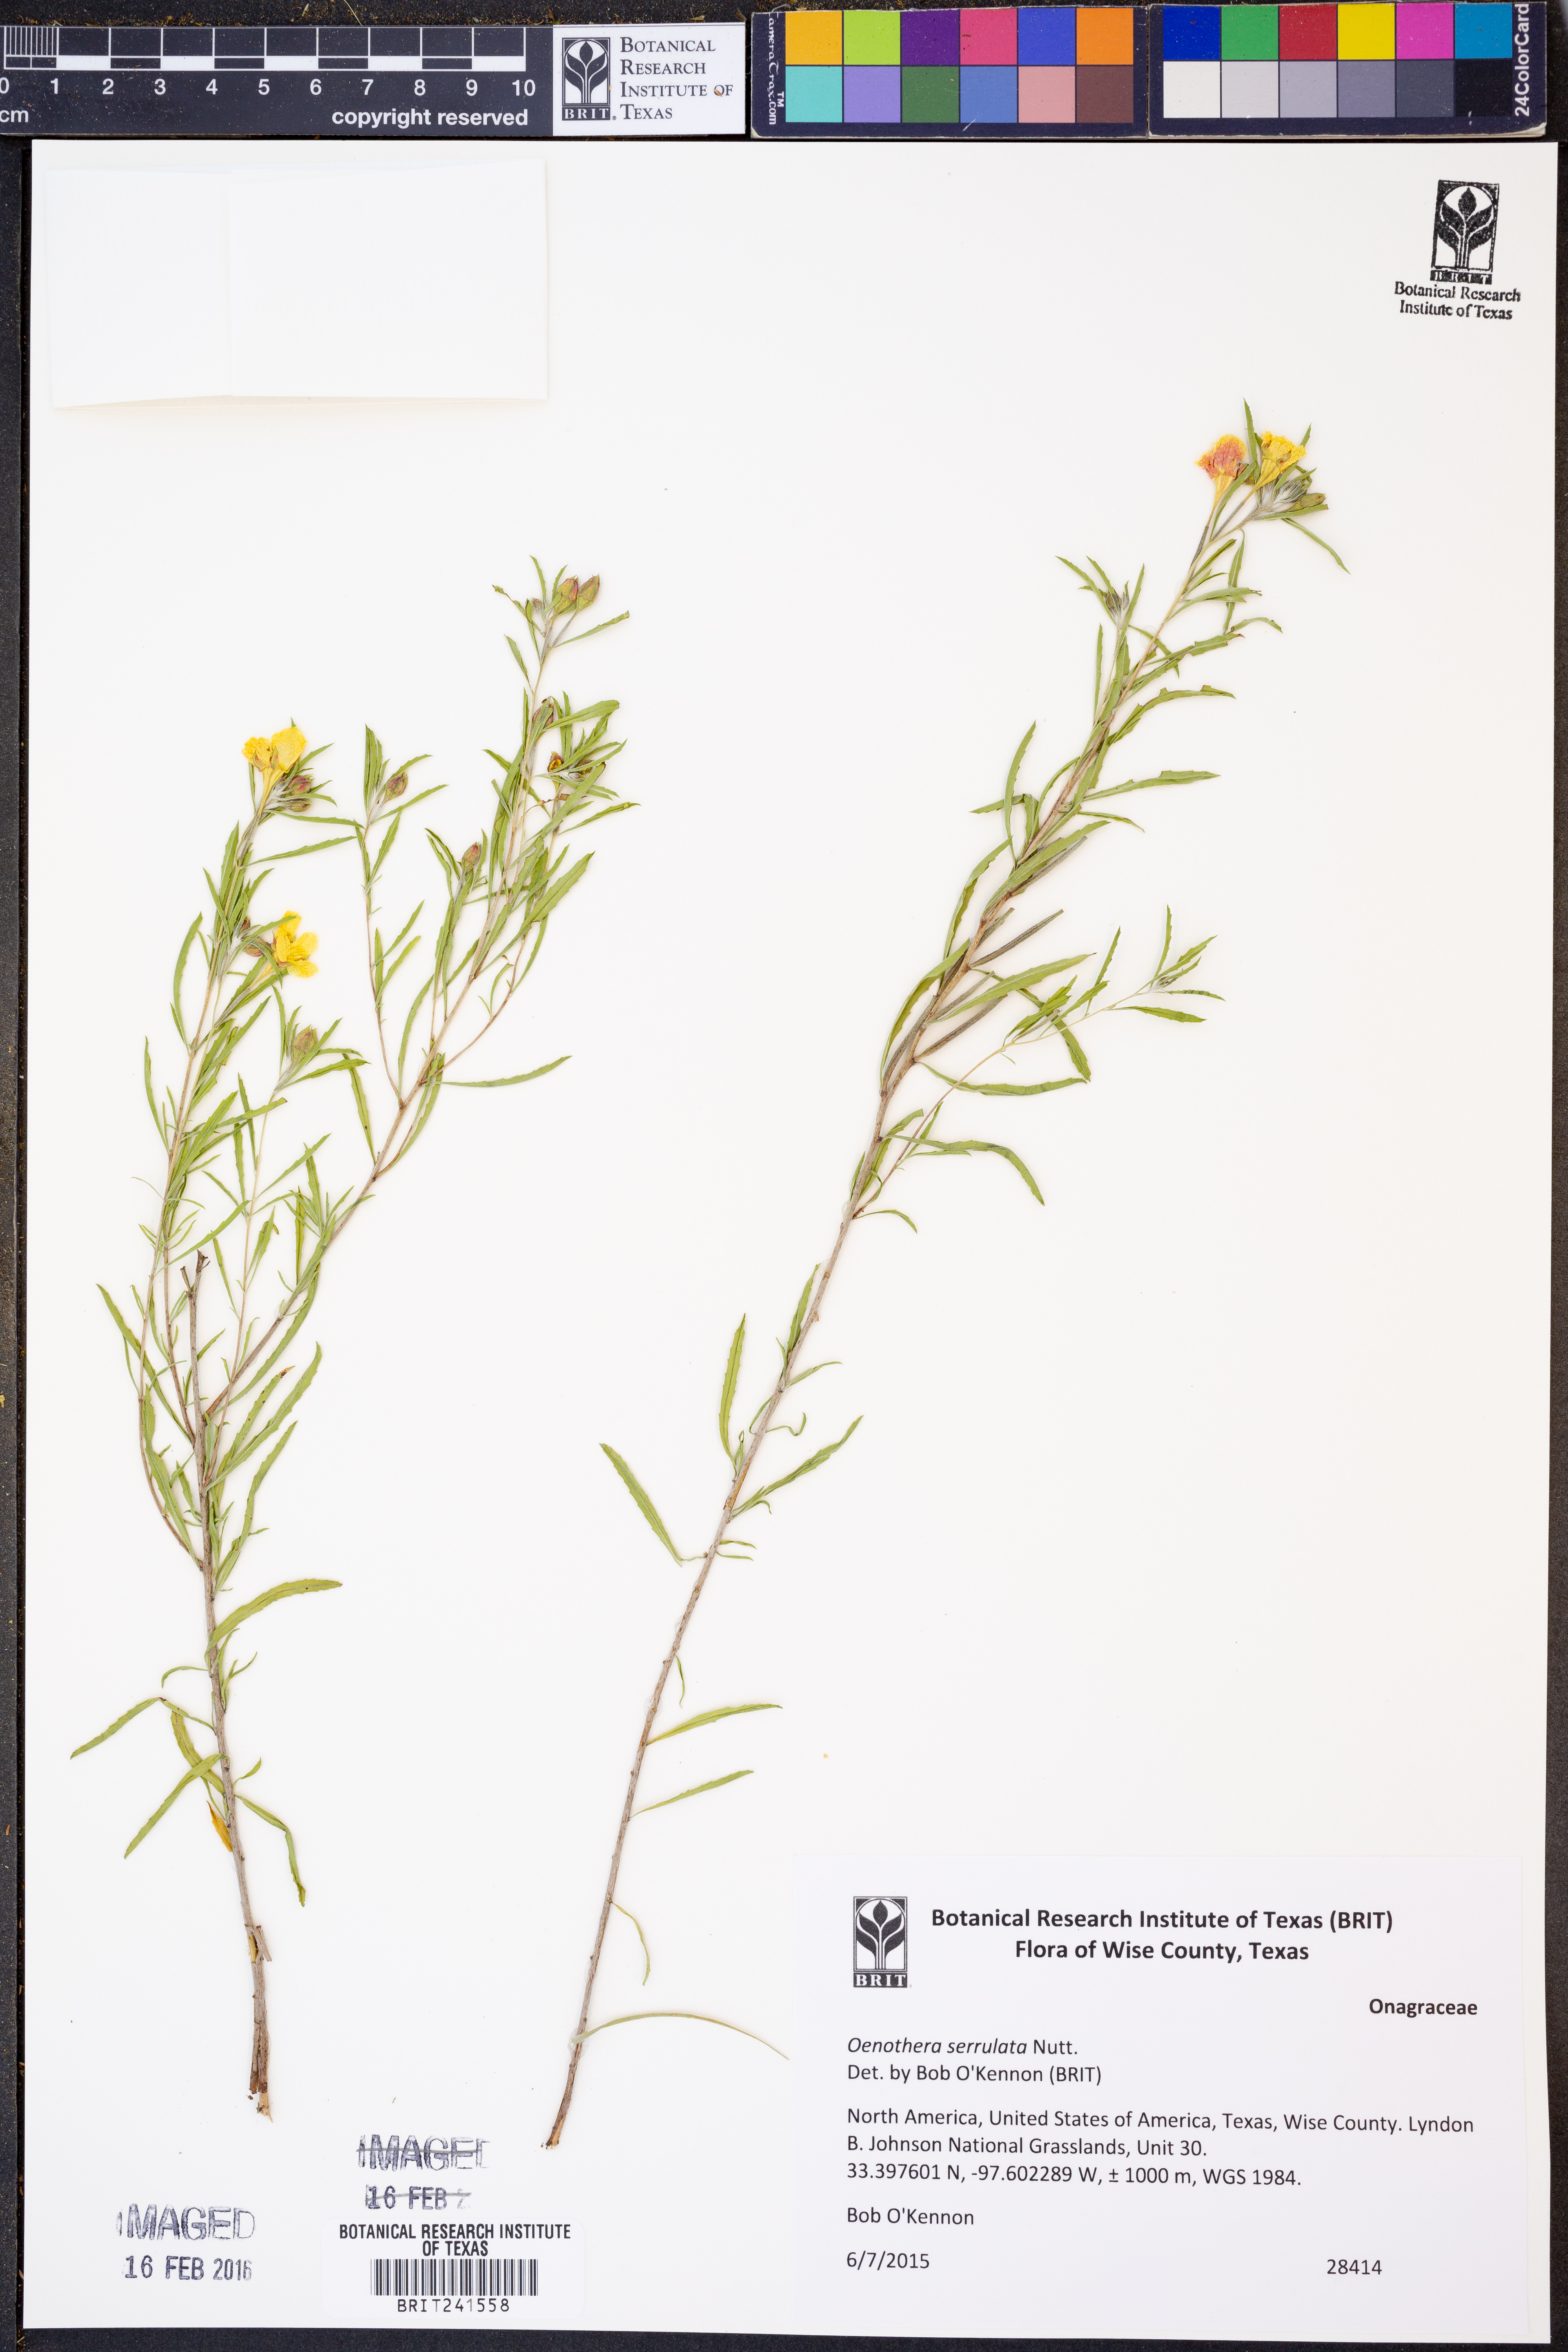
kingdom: Plantae
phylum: Tracheophyta
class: Magnoliopsida
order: Myrtales
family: Onagraceae
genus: Oenothera
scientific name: Oenothera serrulata
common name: Half-shrub calylophus
